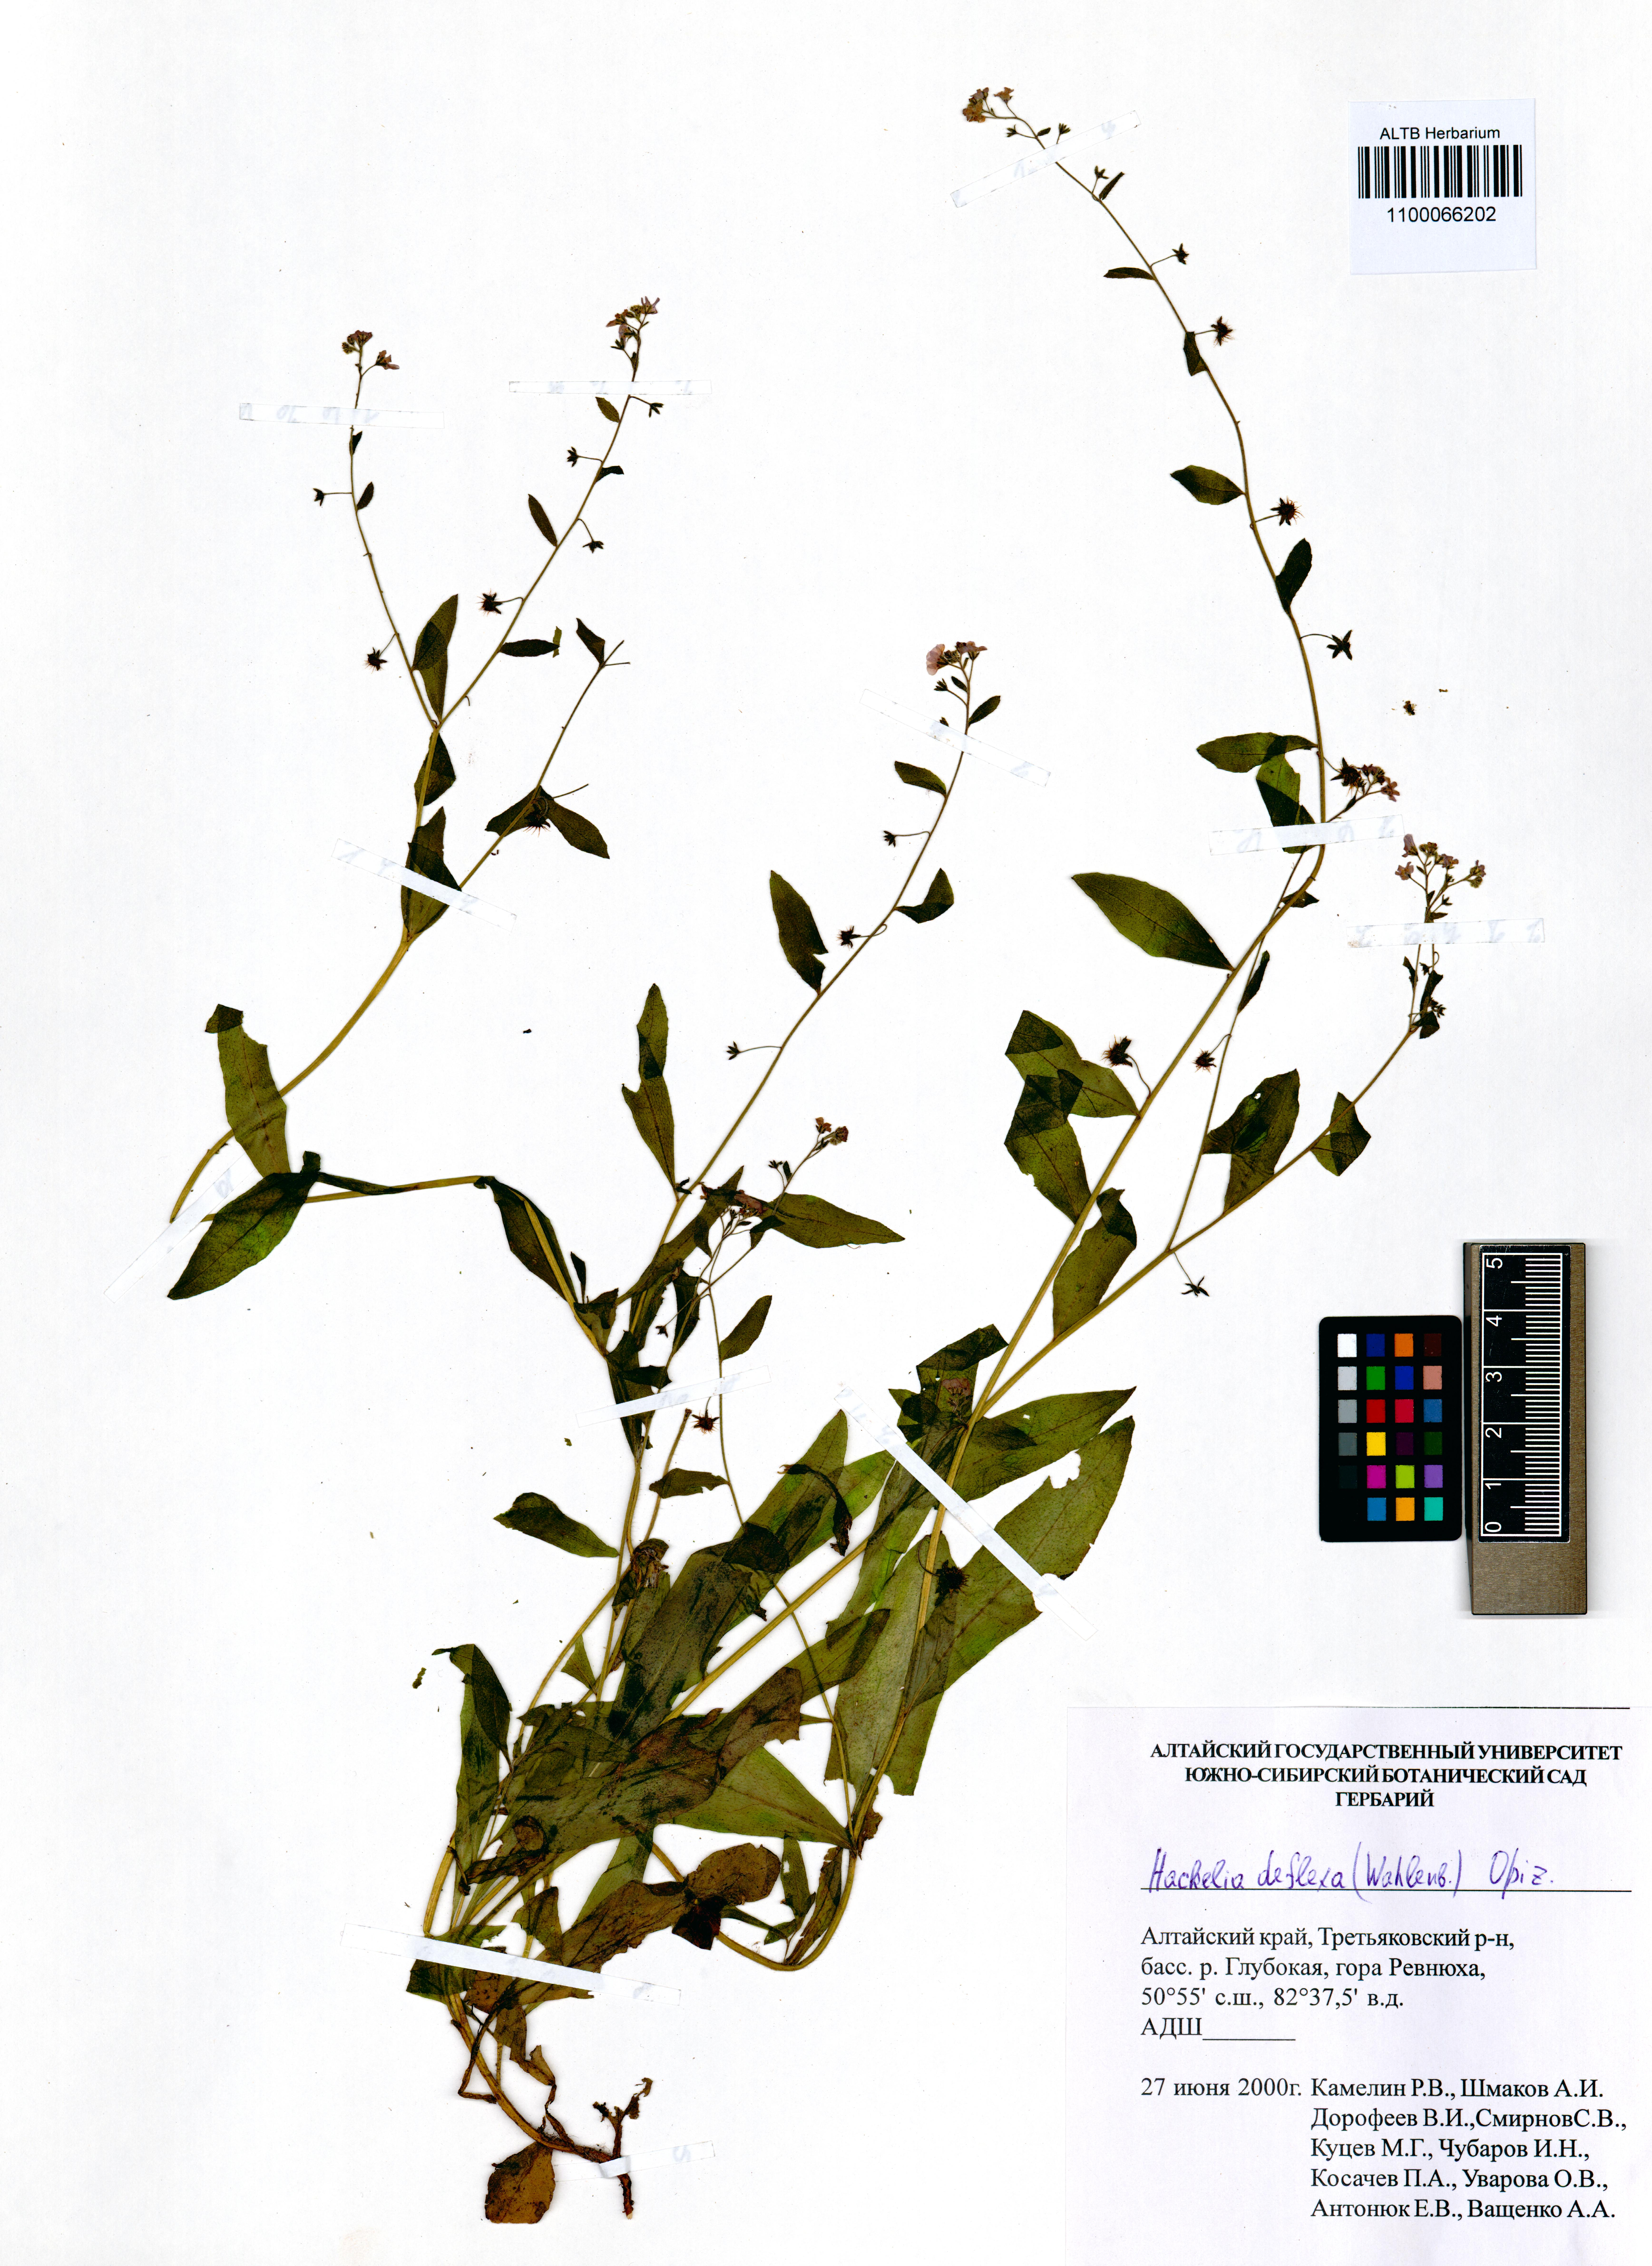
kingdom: Plantae
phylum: Tracheophyta
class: Magnoliopsida
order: Boraginales
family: Boraginaceae
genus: Hackelia
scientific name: Hackelia deflexa
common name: Nodding stickseed
